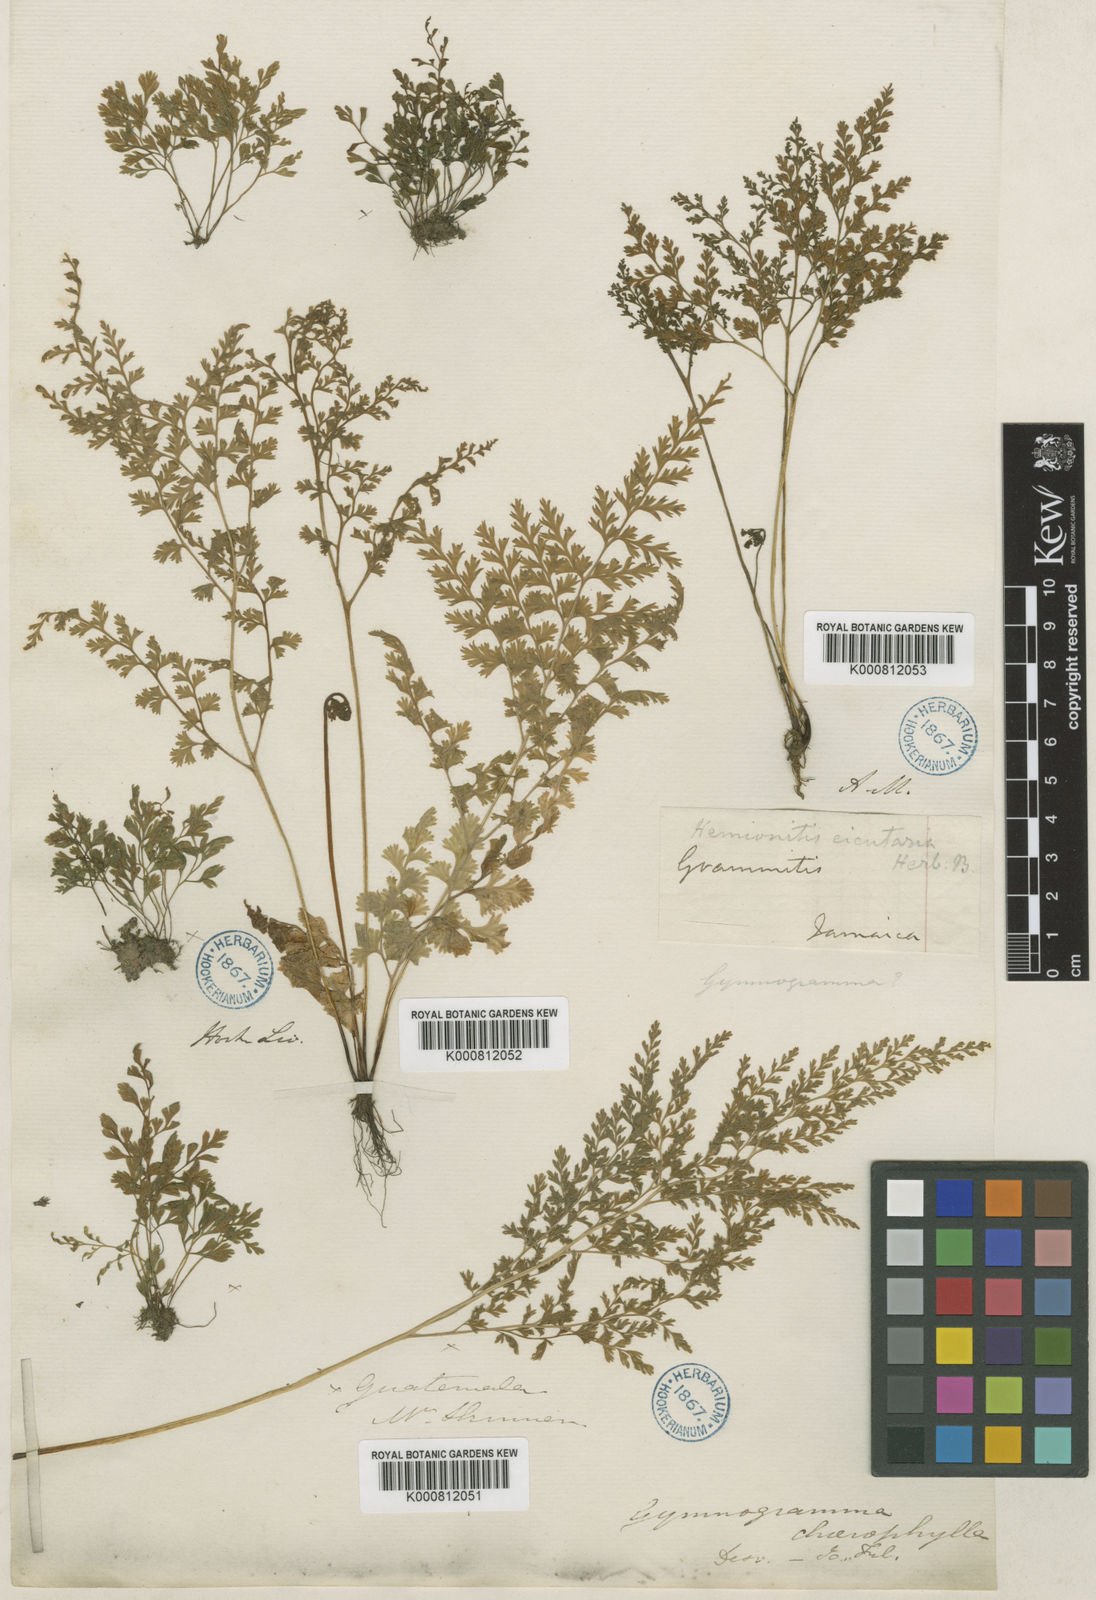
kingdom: Plantae
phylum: Tracheophyta
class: Polypodiopsida
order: Polypodiales
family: Pteridaceae
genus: Gastoniella
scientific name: Gastoniella chaerophylla
